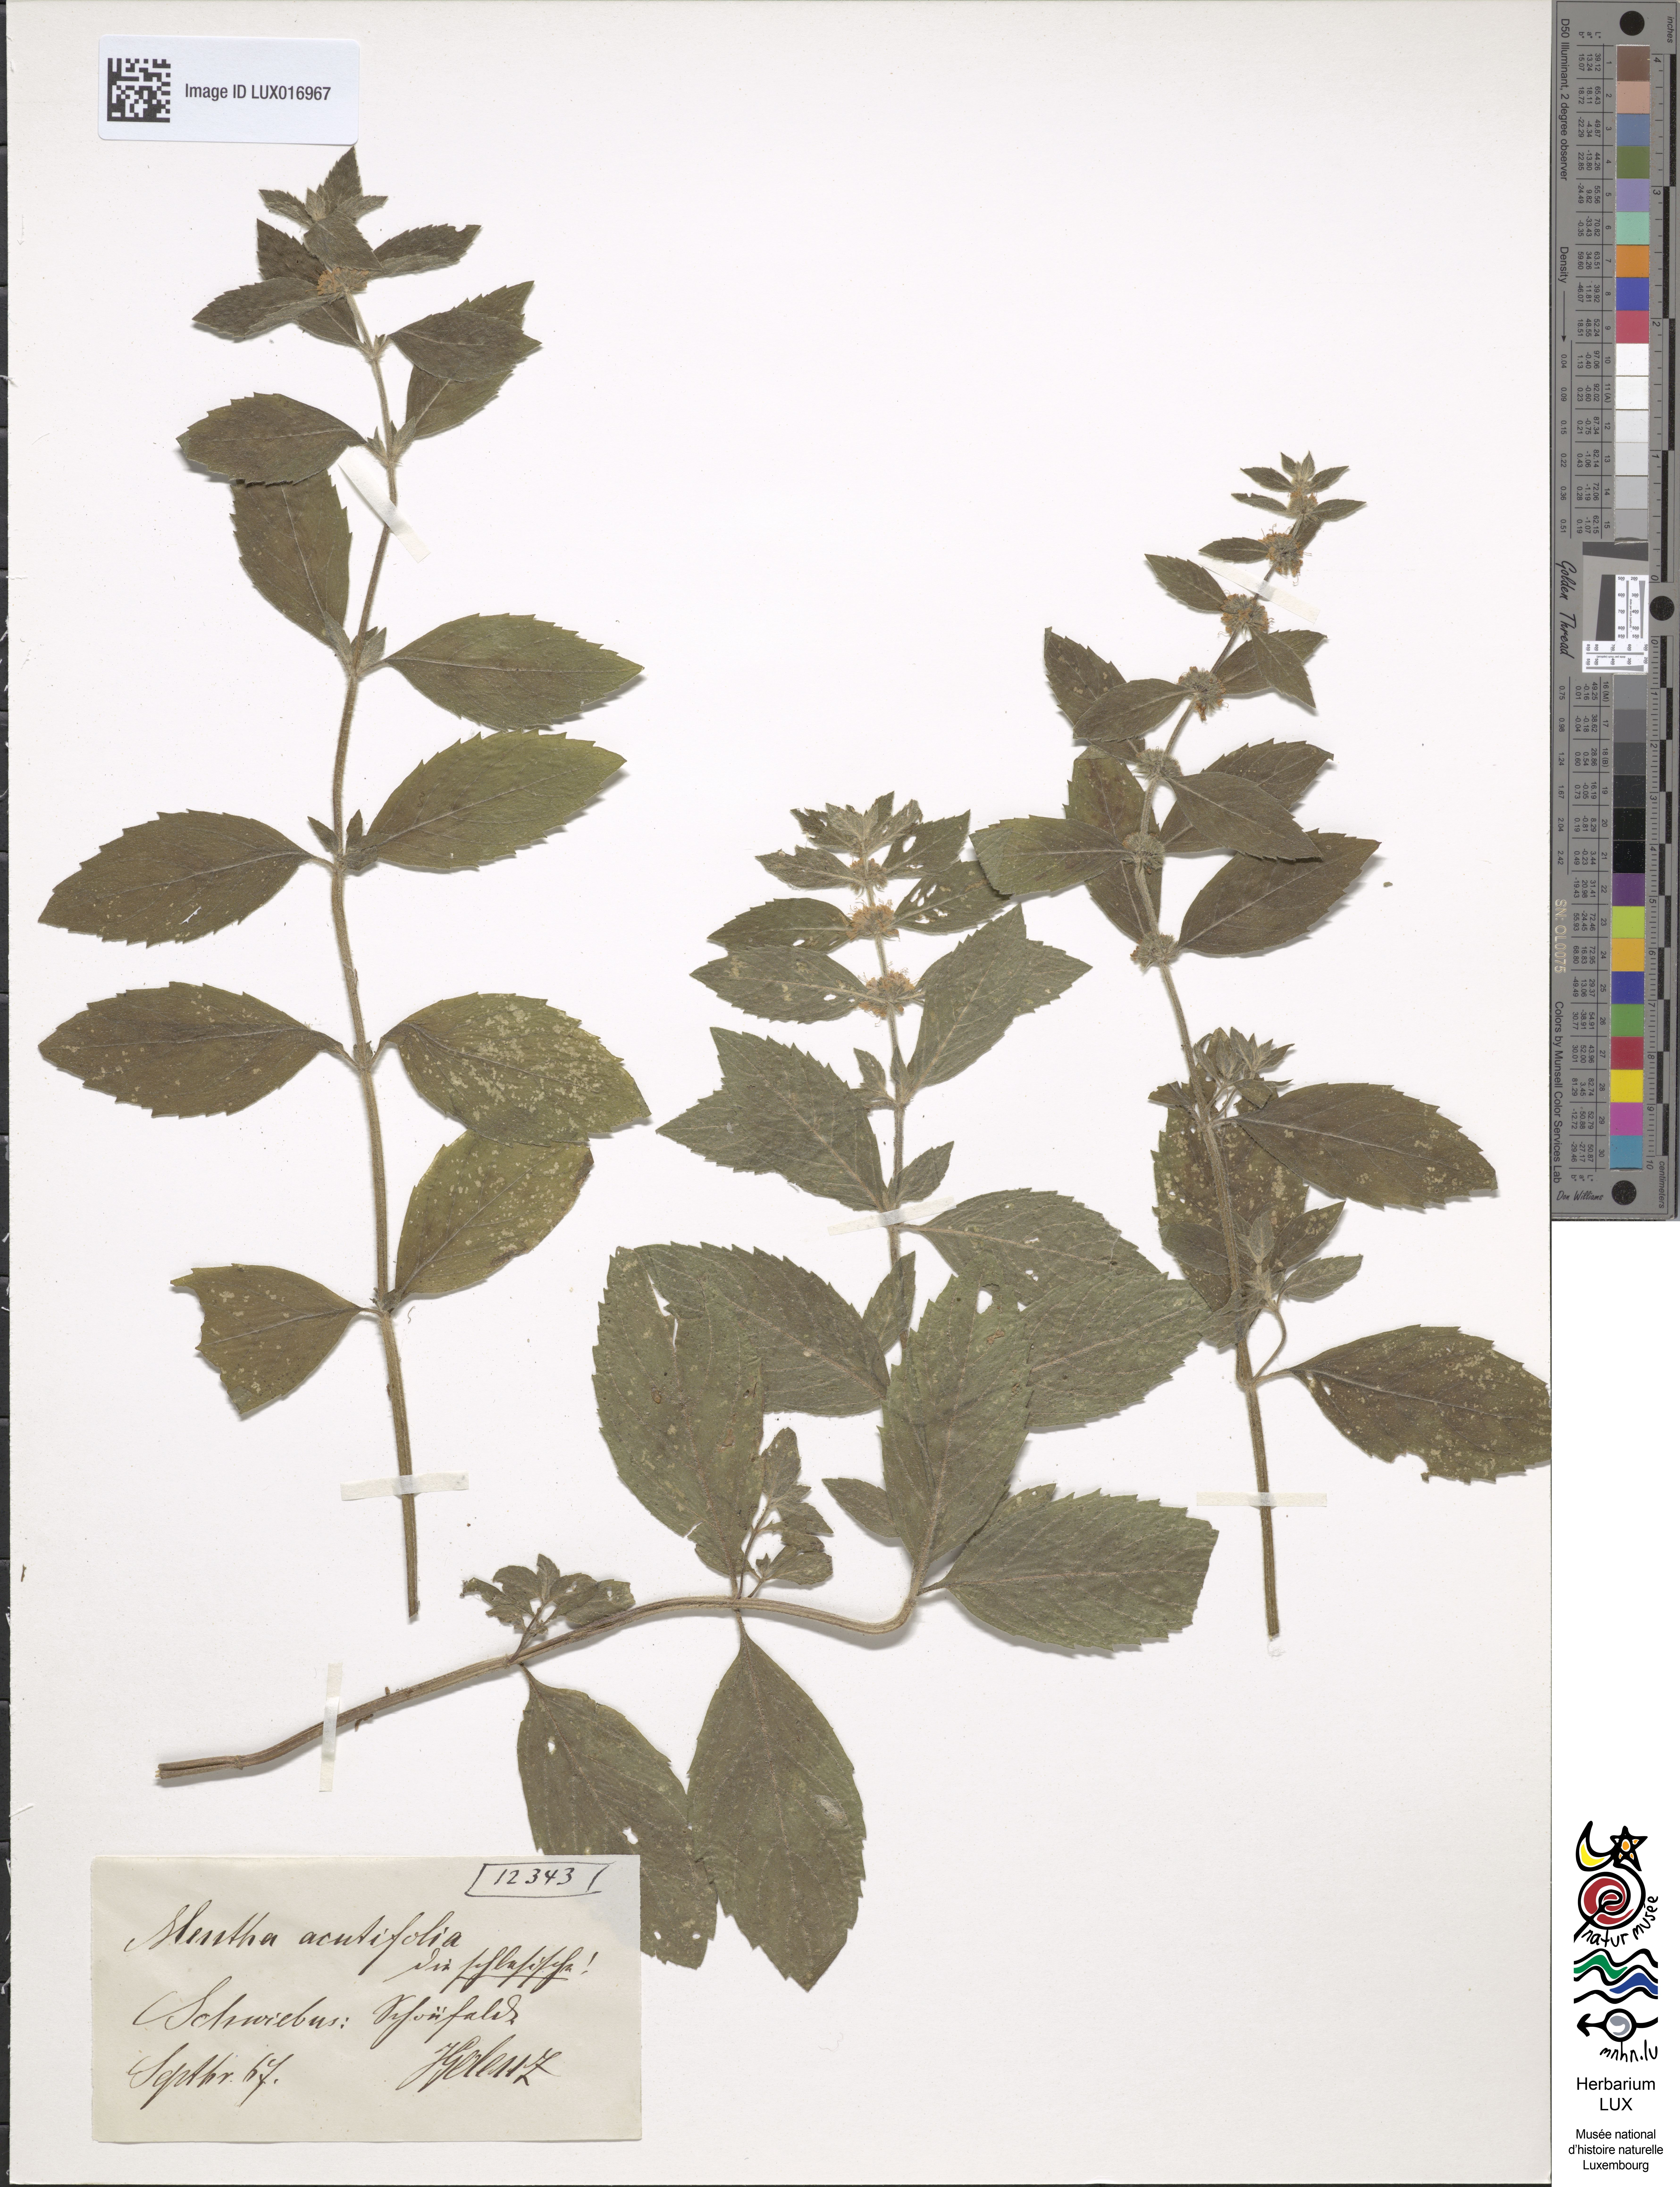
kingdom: Plantae
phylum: Tracheophyta
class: Magnoliopsida
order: Lamiales
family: Lamiaceae
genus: Mentha
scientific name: Mentha verticillata
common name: Mint
